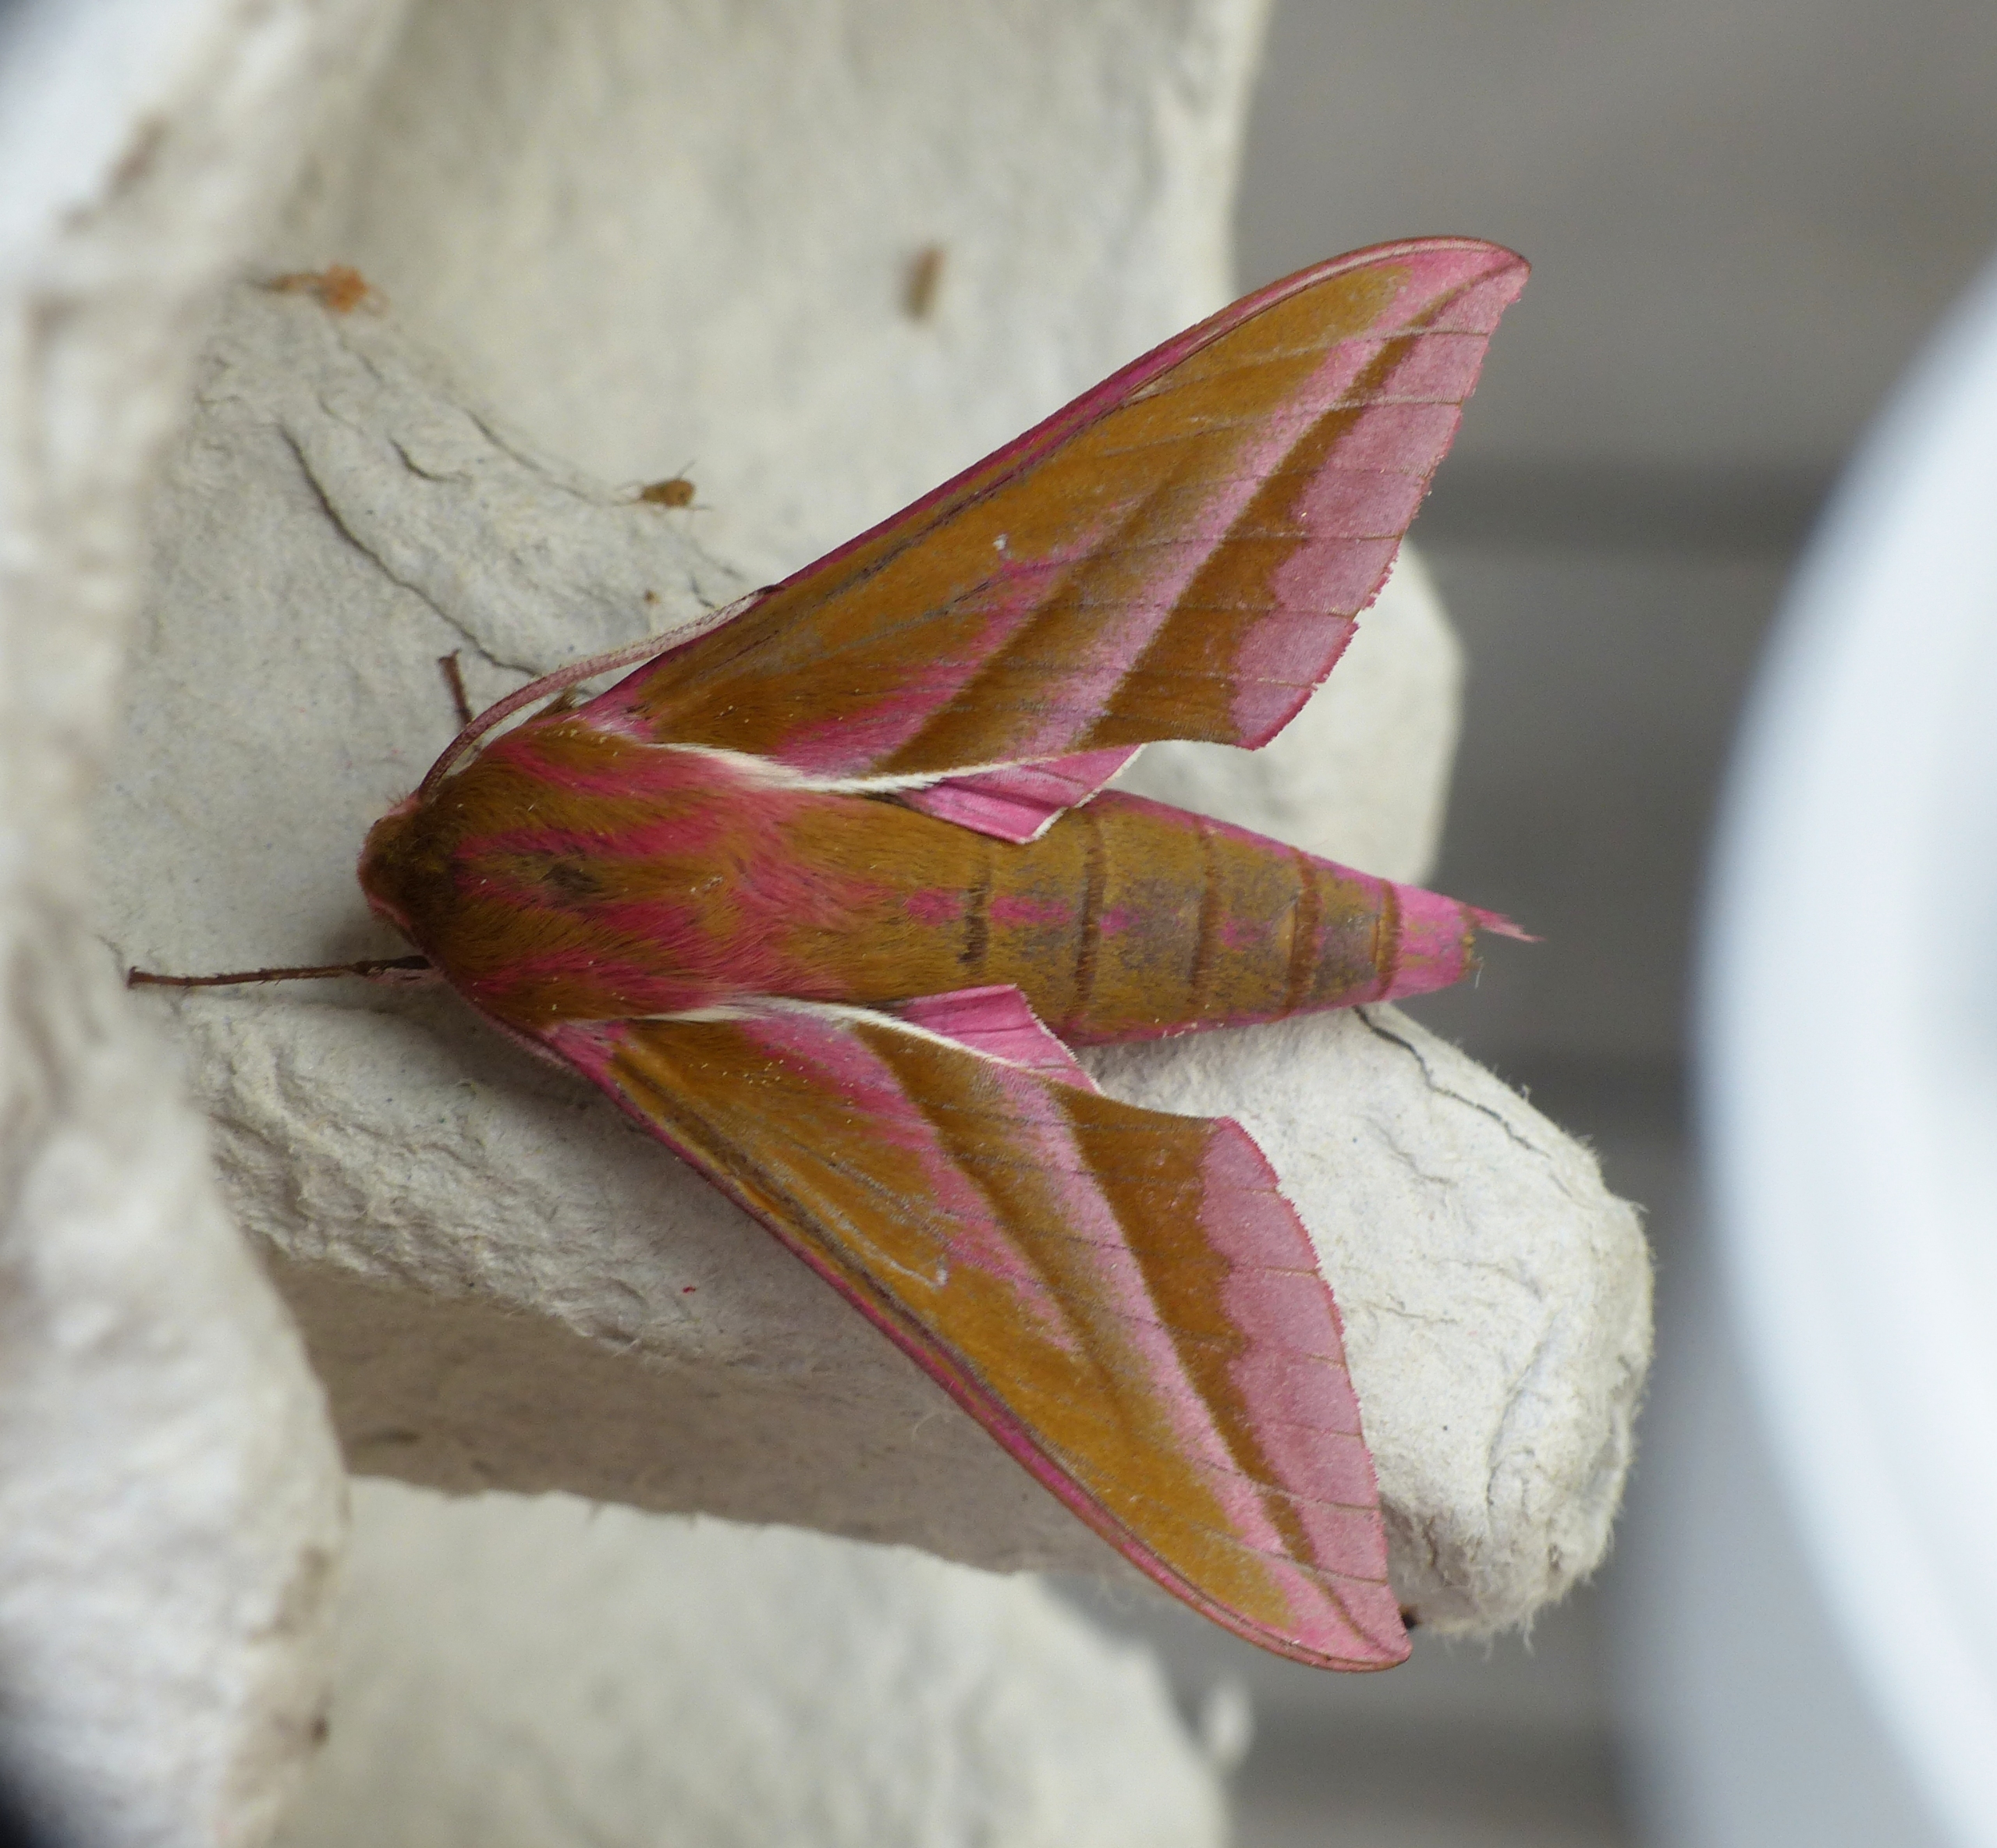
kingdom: Animalia
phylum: Arthropoda
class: Insecta
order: Lepidoptera
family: Sphingidae
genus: Deilephila
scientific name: Deilephila elpenor
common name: Dueurtsværmer
